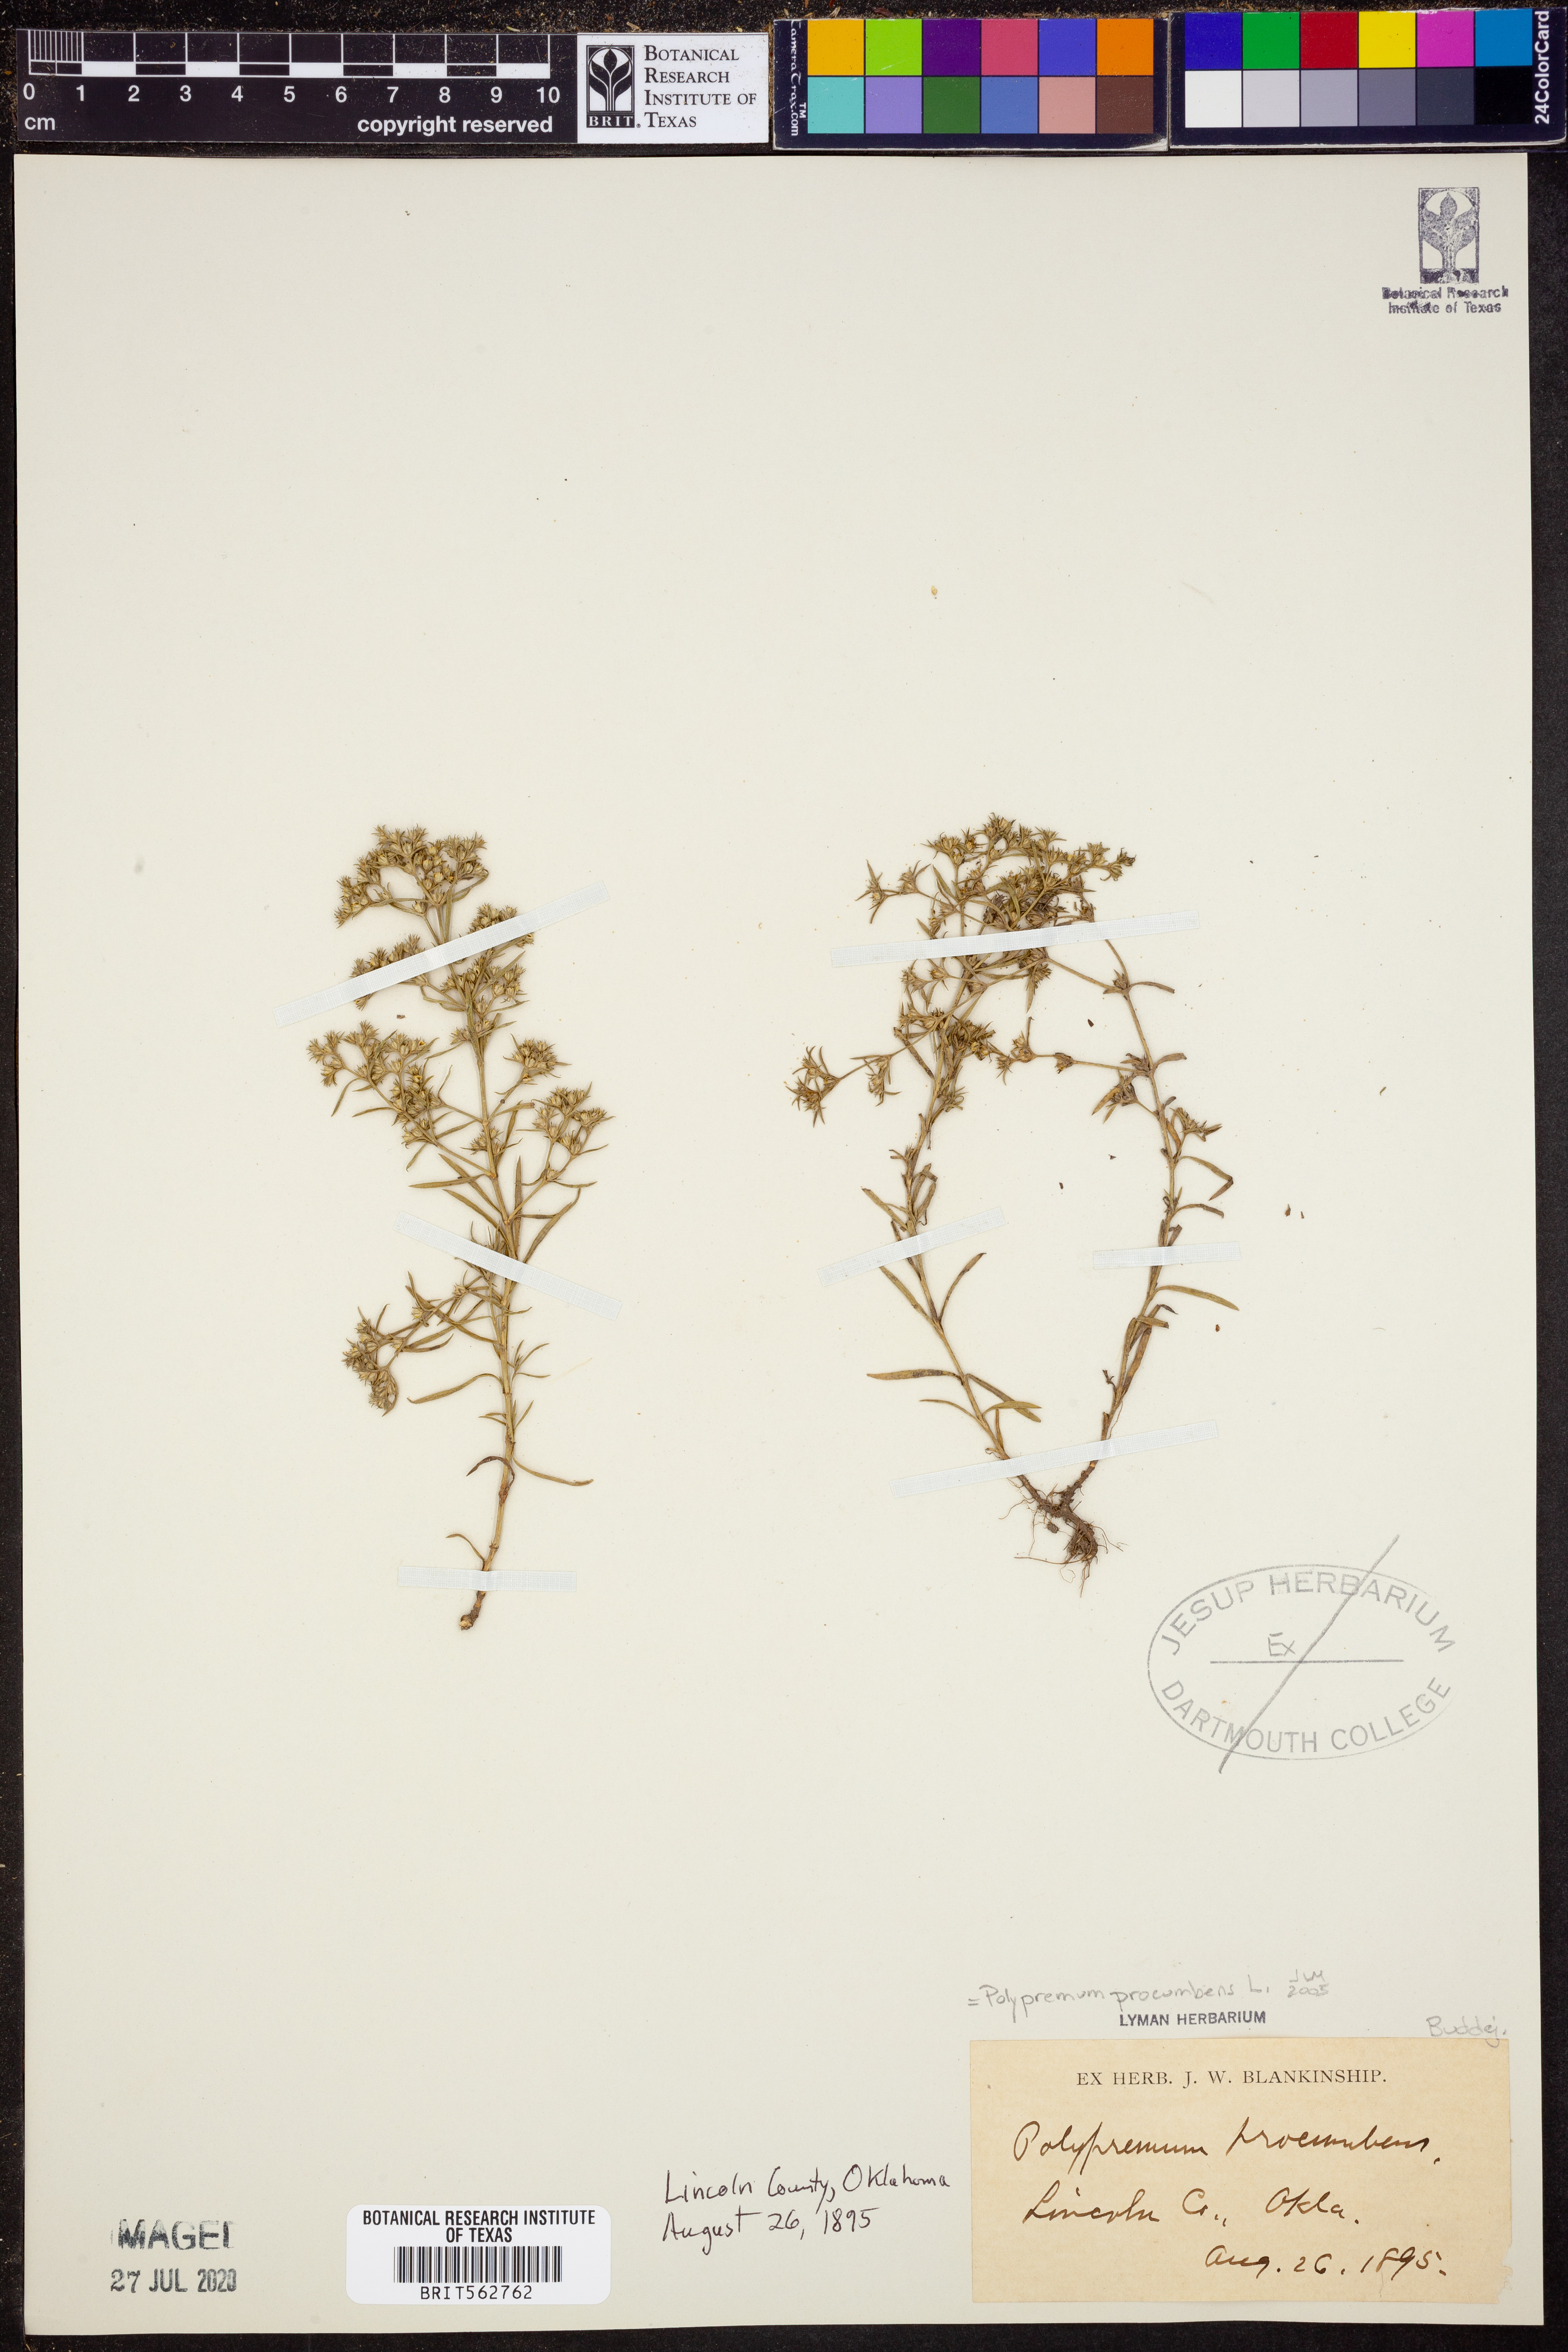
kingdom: Plantae
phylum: Tracheophyta
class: Magnoliopsida
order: Lamiales
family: Tetrachondraceae
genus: Polypremum
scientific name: Polypremum procumbens
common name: Juniper-leaf
